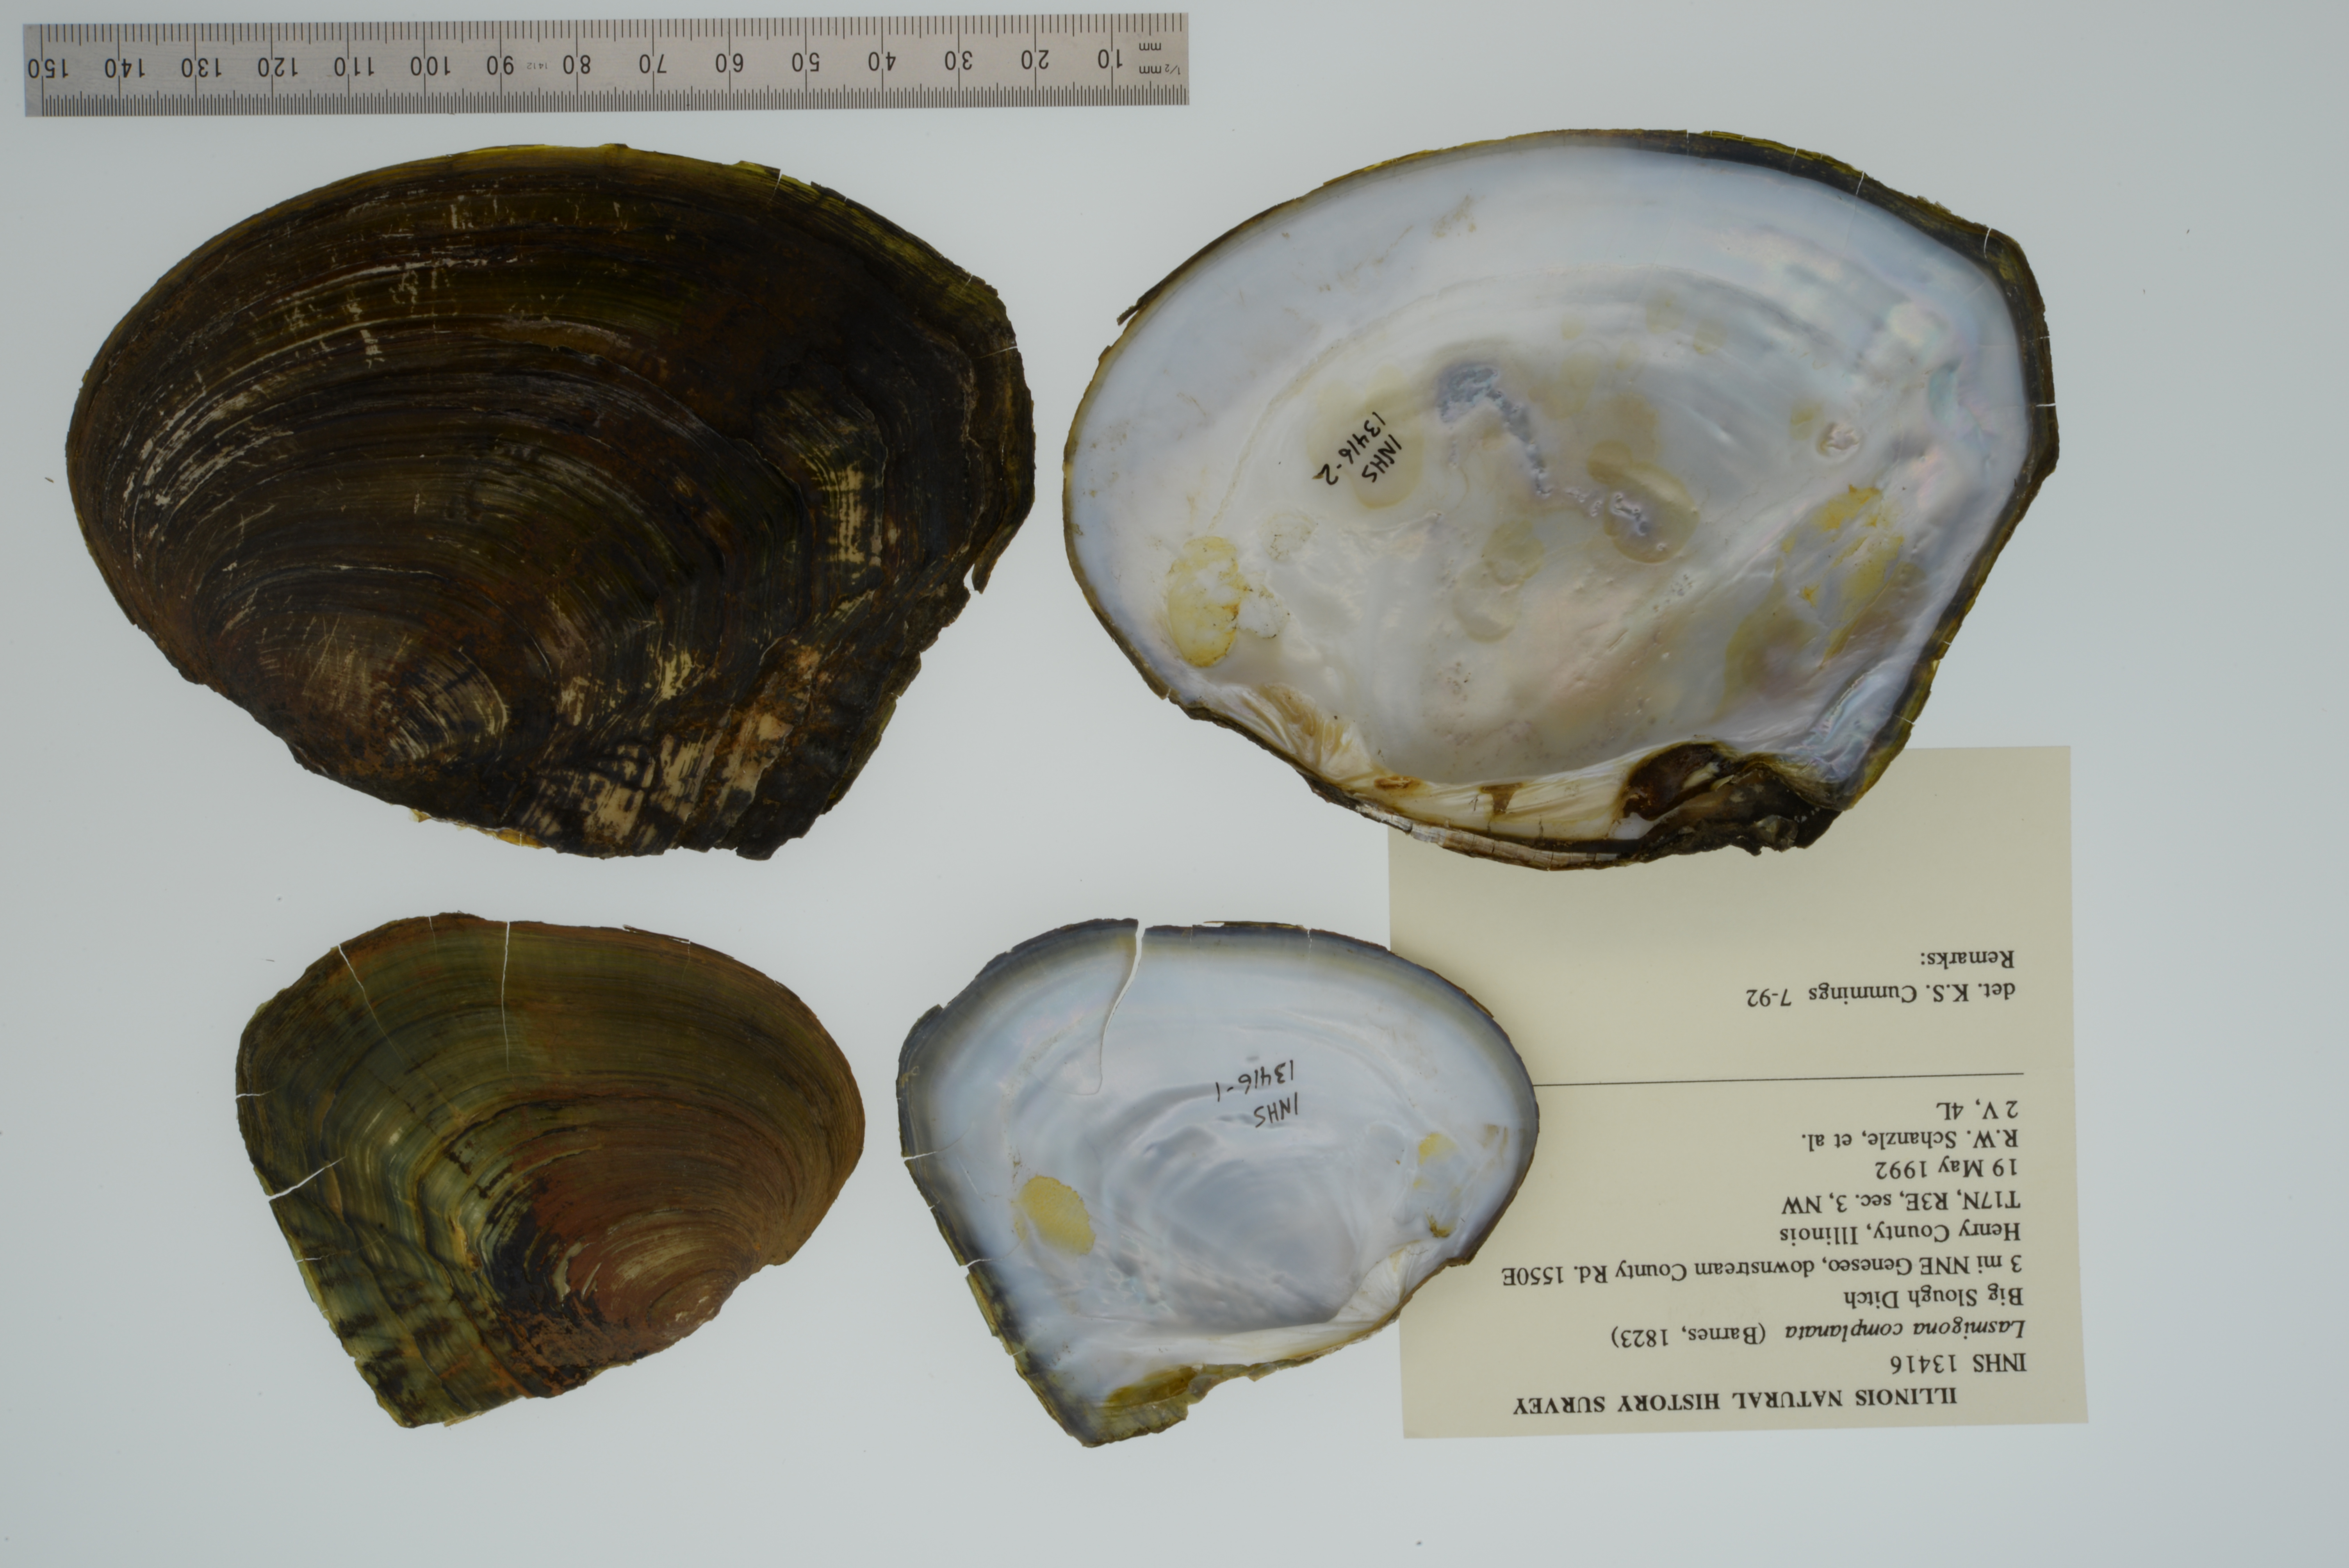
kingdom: Animalia
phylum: Mollusca
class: Bivalvia
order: Unionida
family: Unionidae
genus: Lasmigona
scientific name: Lasmigona complanata
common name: White heelsplitter
